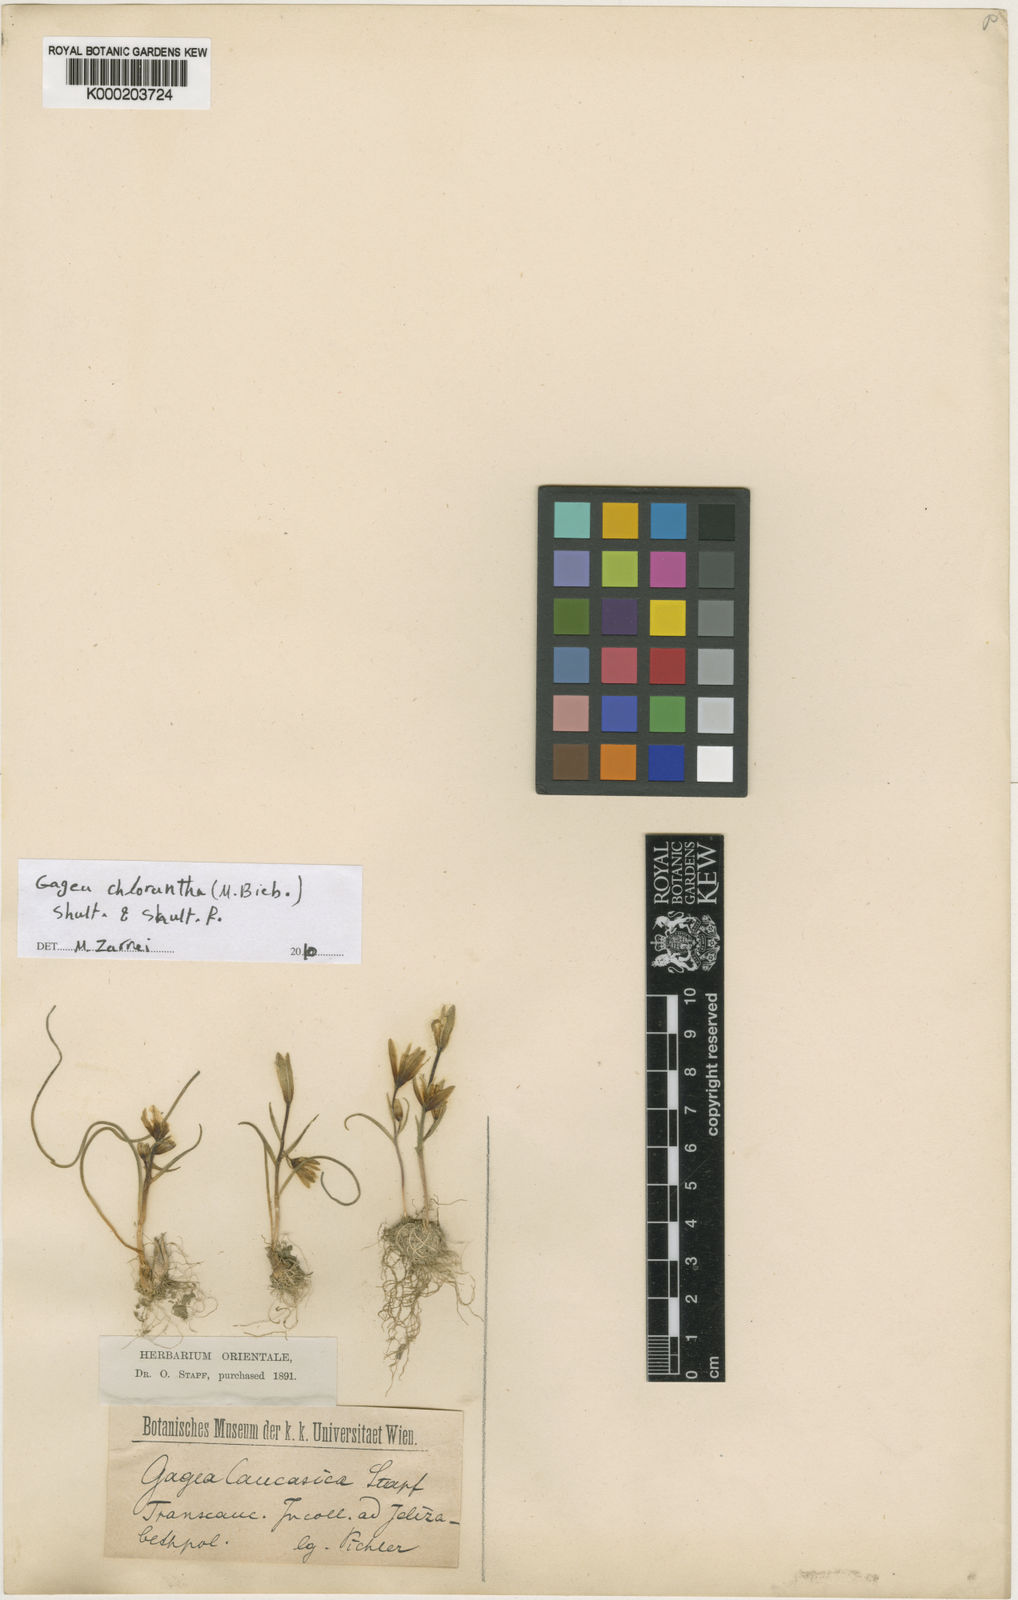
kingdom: Plantae
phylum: Tracheophyta
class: Liliopsida
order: Liliales
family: Liliaceae
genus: Gagea
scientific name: Gagea chlorantha
